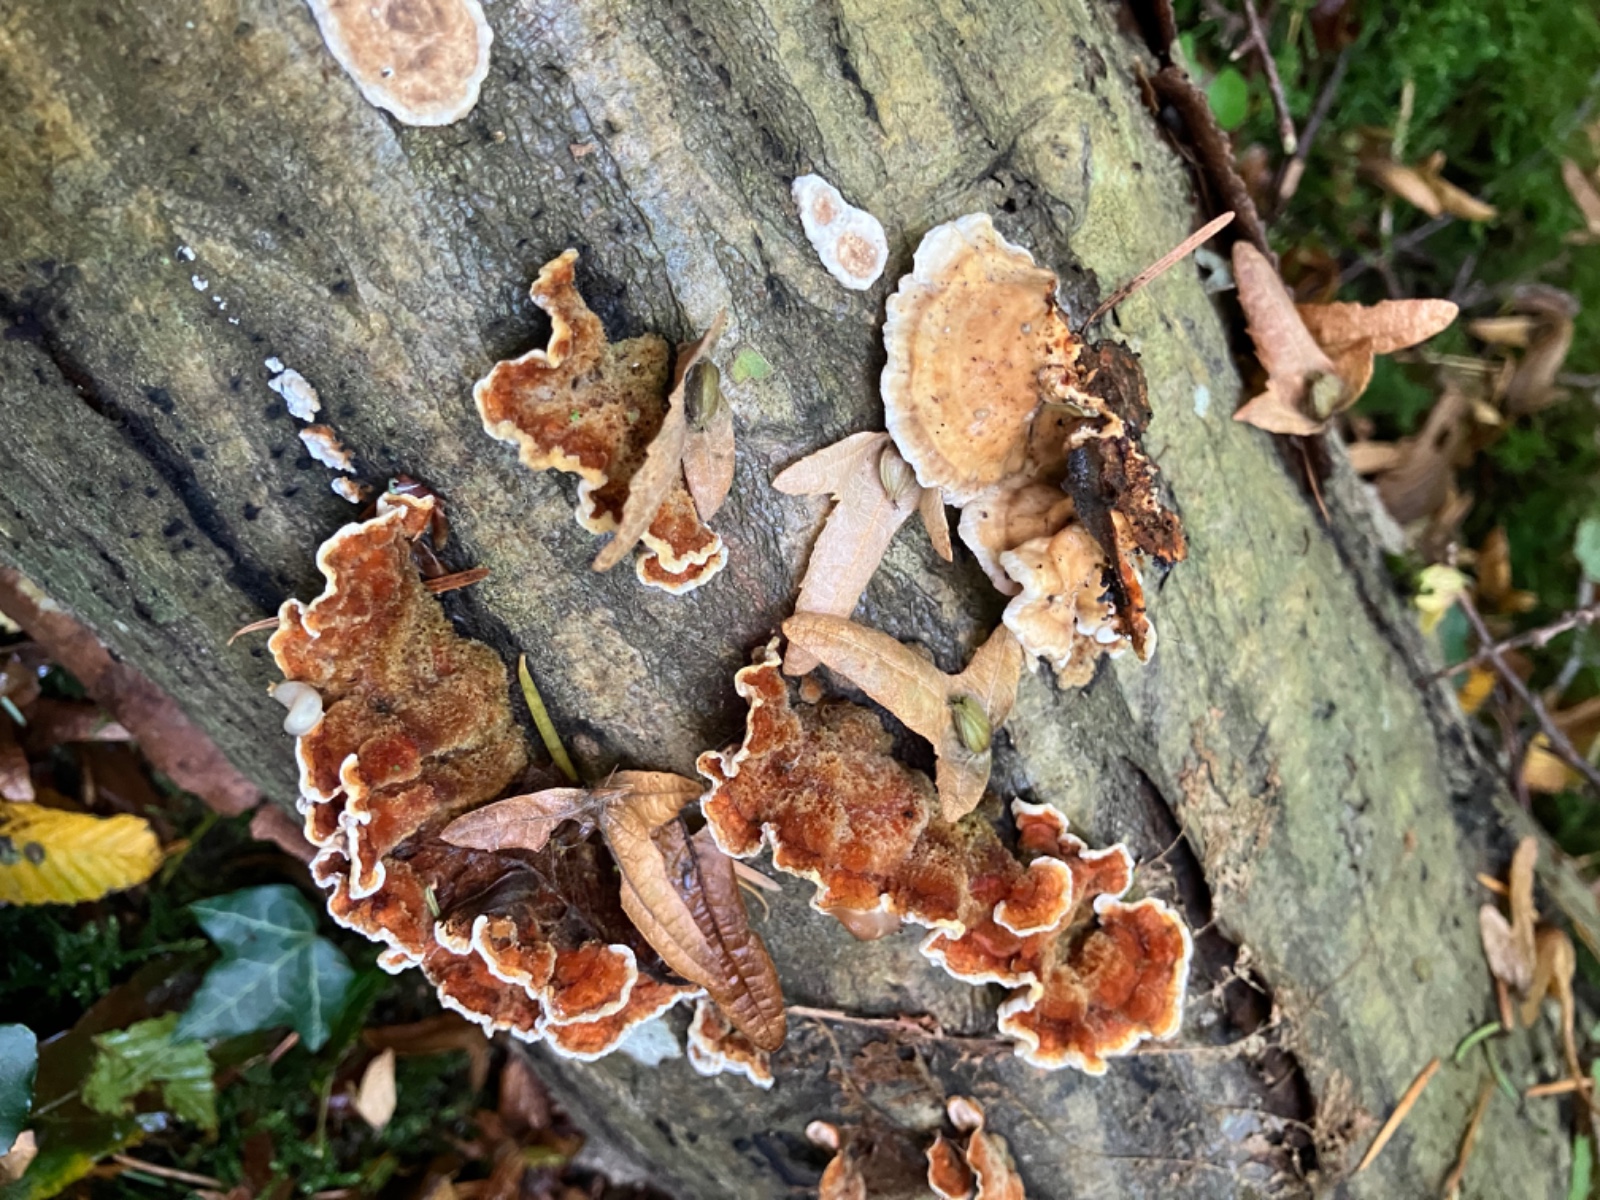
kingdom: Fungi
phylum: Basidiomycota
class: Agaricomycetes
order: Russulales
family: Stereaceae
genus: Stereum
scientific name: Stereum
